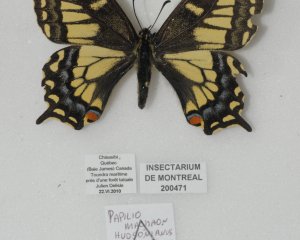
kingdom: Animalia
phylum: Arthropoda
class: Insecta
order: Lepidoptera
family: Papilionidae
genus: Papilio
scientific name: Papilio machaon
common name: Old World Swallowtail
